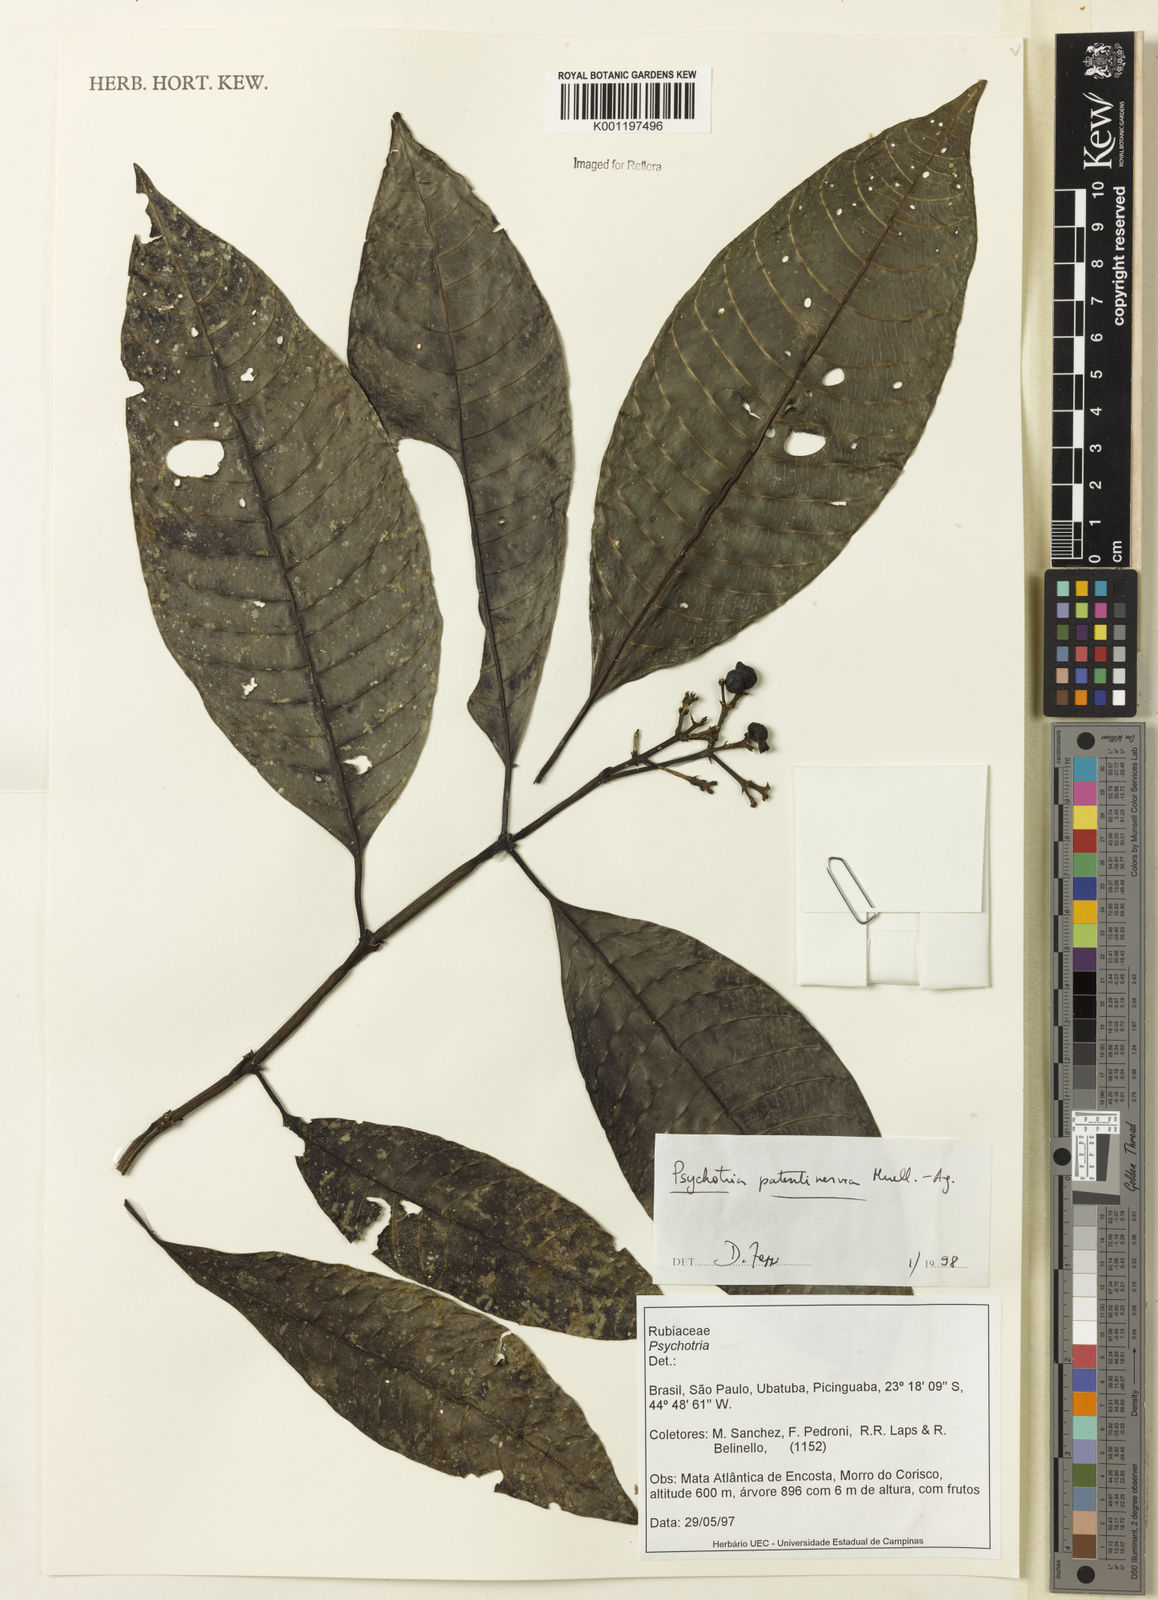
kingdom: Plantae
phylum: Tracheophyta
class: Magnoliopsida
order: Gentianales
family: Rubiaceae
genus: Psychotria
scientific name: Psychotria
